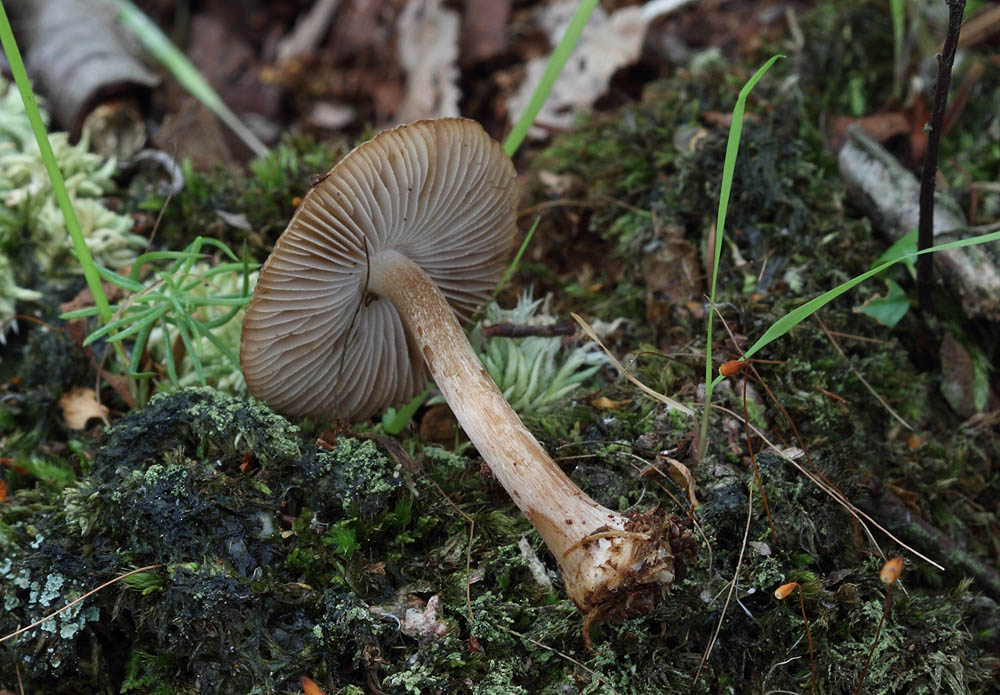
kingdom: Fungi
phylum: Basidiomycota
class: Agaricomycetes
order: Agaricales
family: Inocybaceae
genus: Inocybe
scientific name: Inocybe napipes
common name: roeknoldet trævlhat
